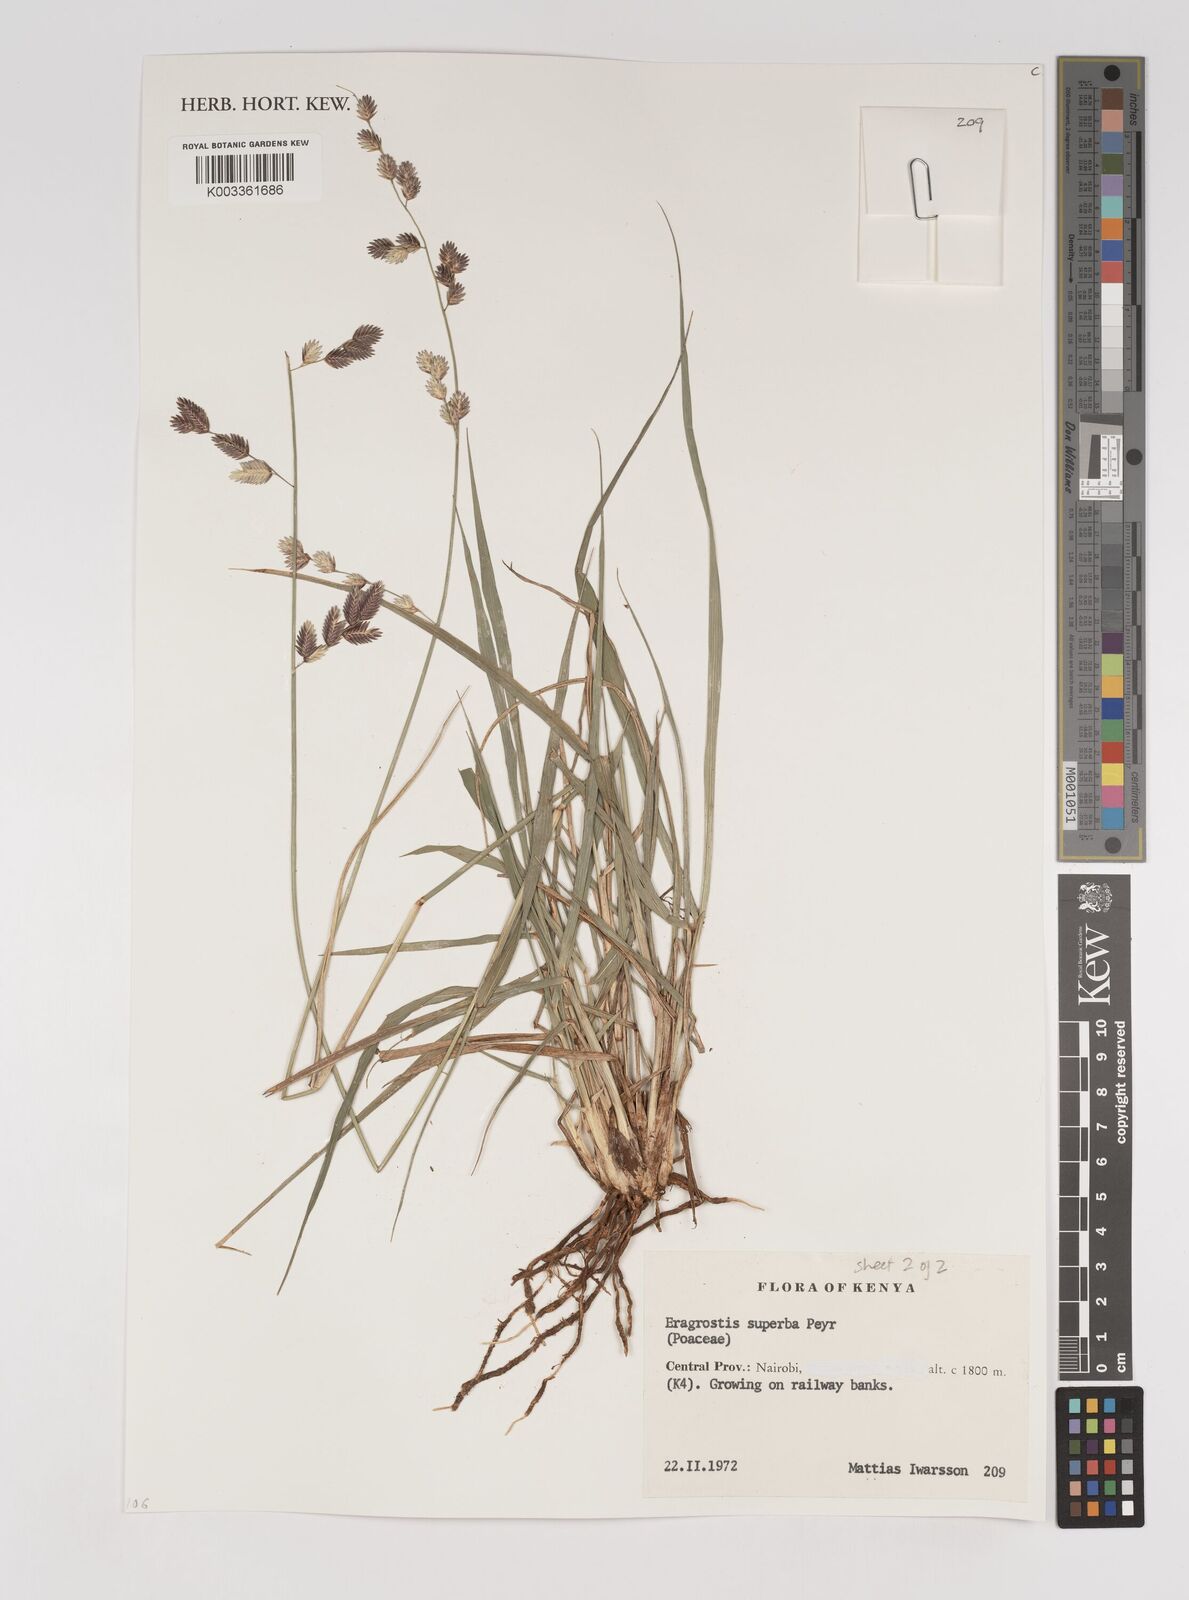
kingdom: Plantae
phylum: Tracheophyta
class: Liliopsida
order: Poales
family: Poaceae
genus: Eragrostis
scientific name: Eragrostis superba
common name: Wilman lovegrass
